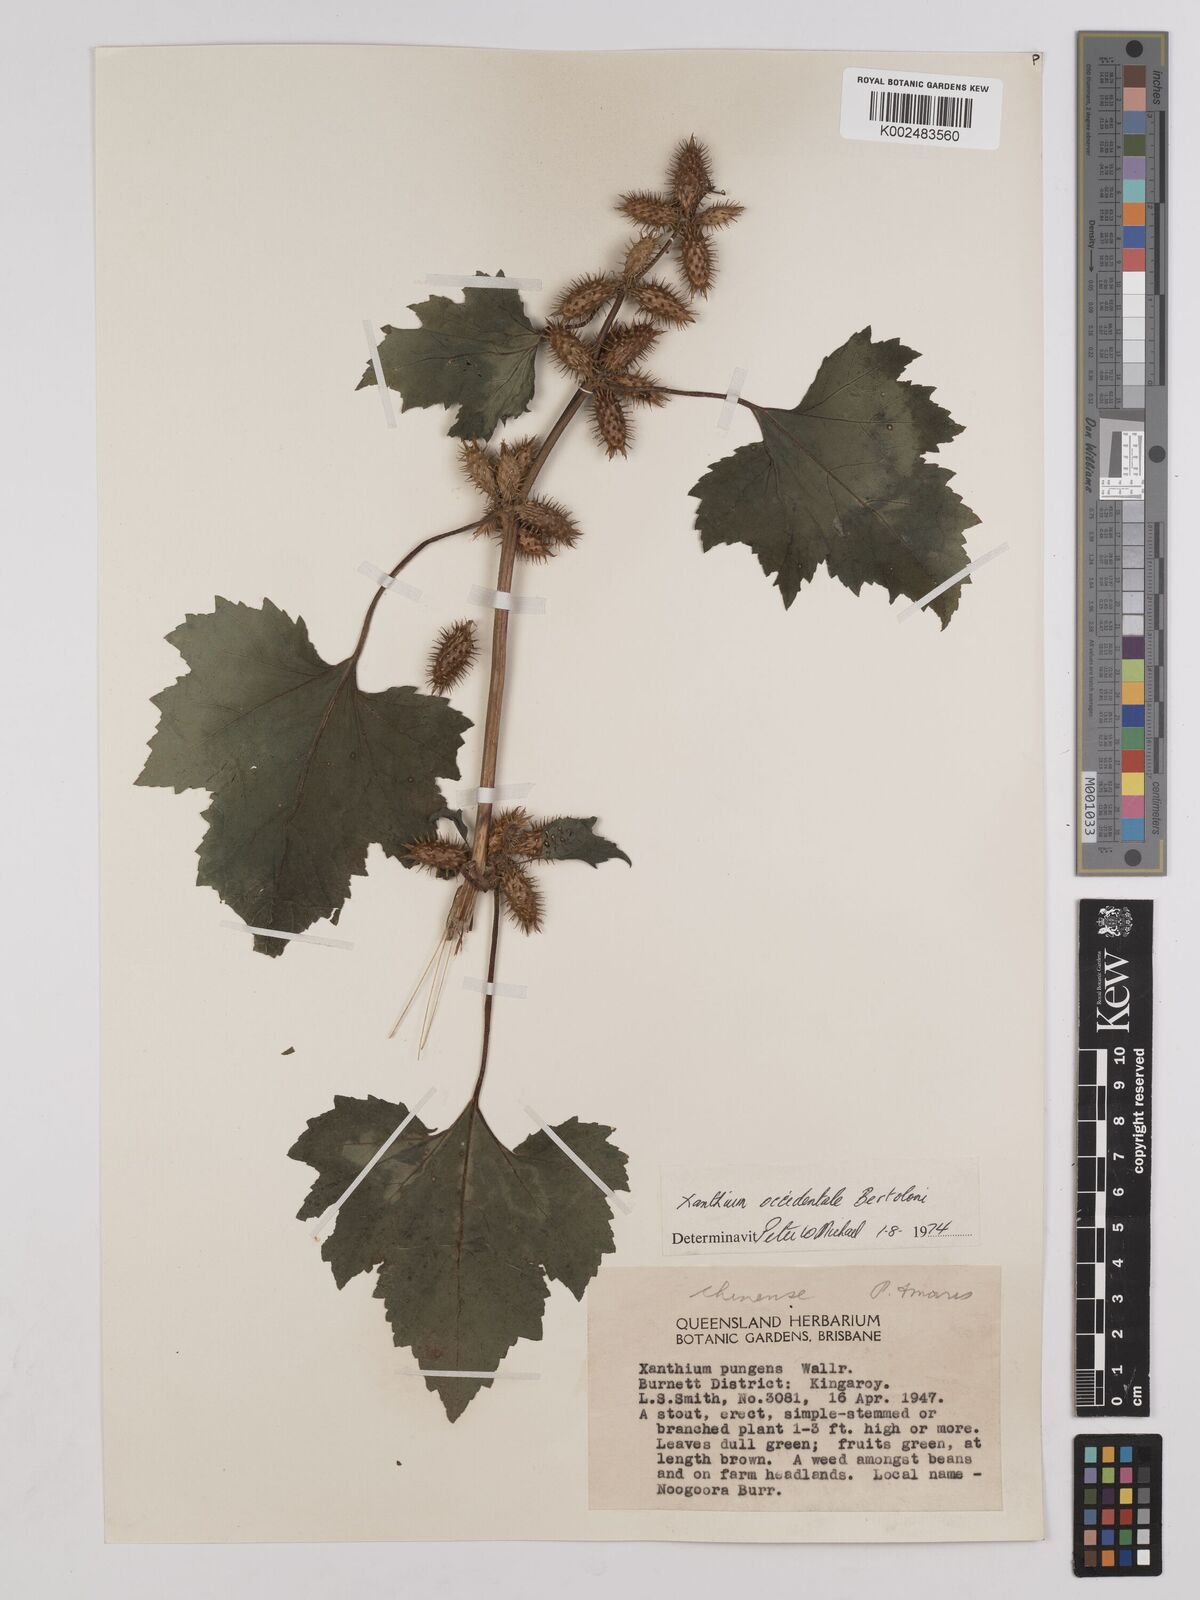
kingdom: Plantae
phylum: Tracheophyta
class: Magnoliopsida
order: Asterales
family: Asteraceae
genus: Xanthium
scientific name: Xanthium occidentale
